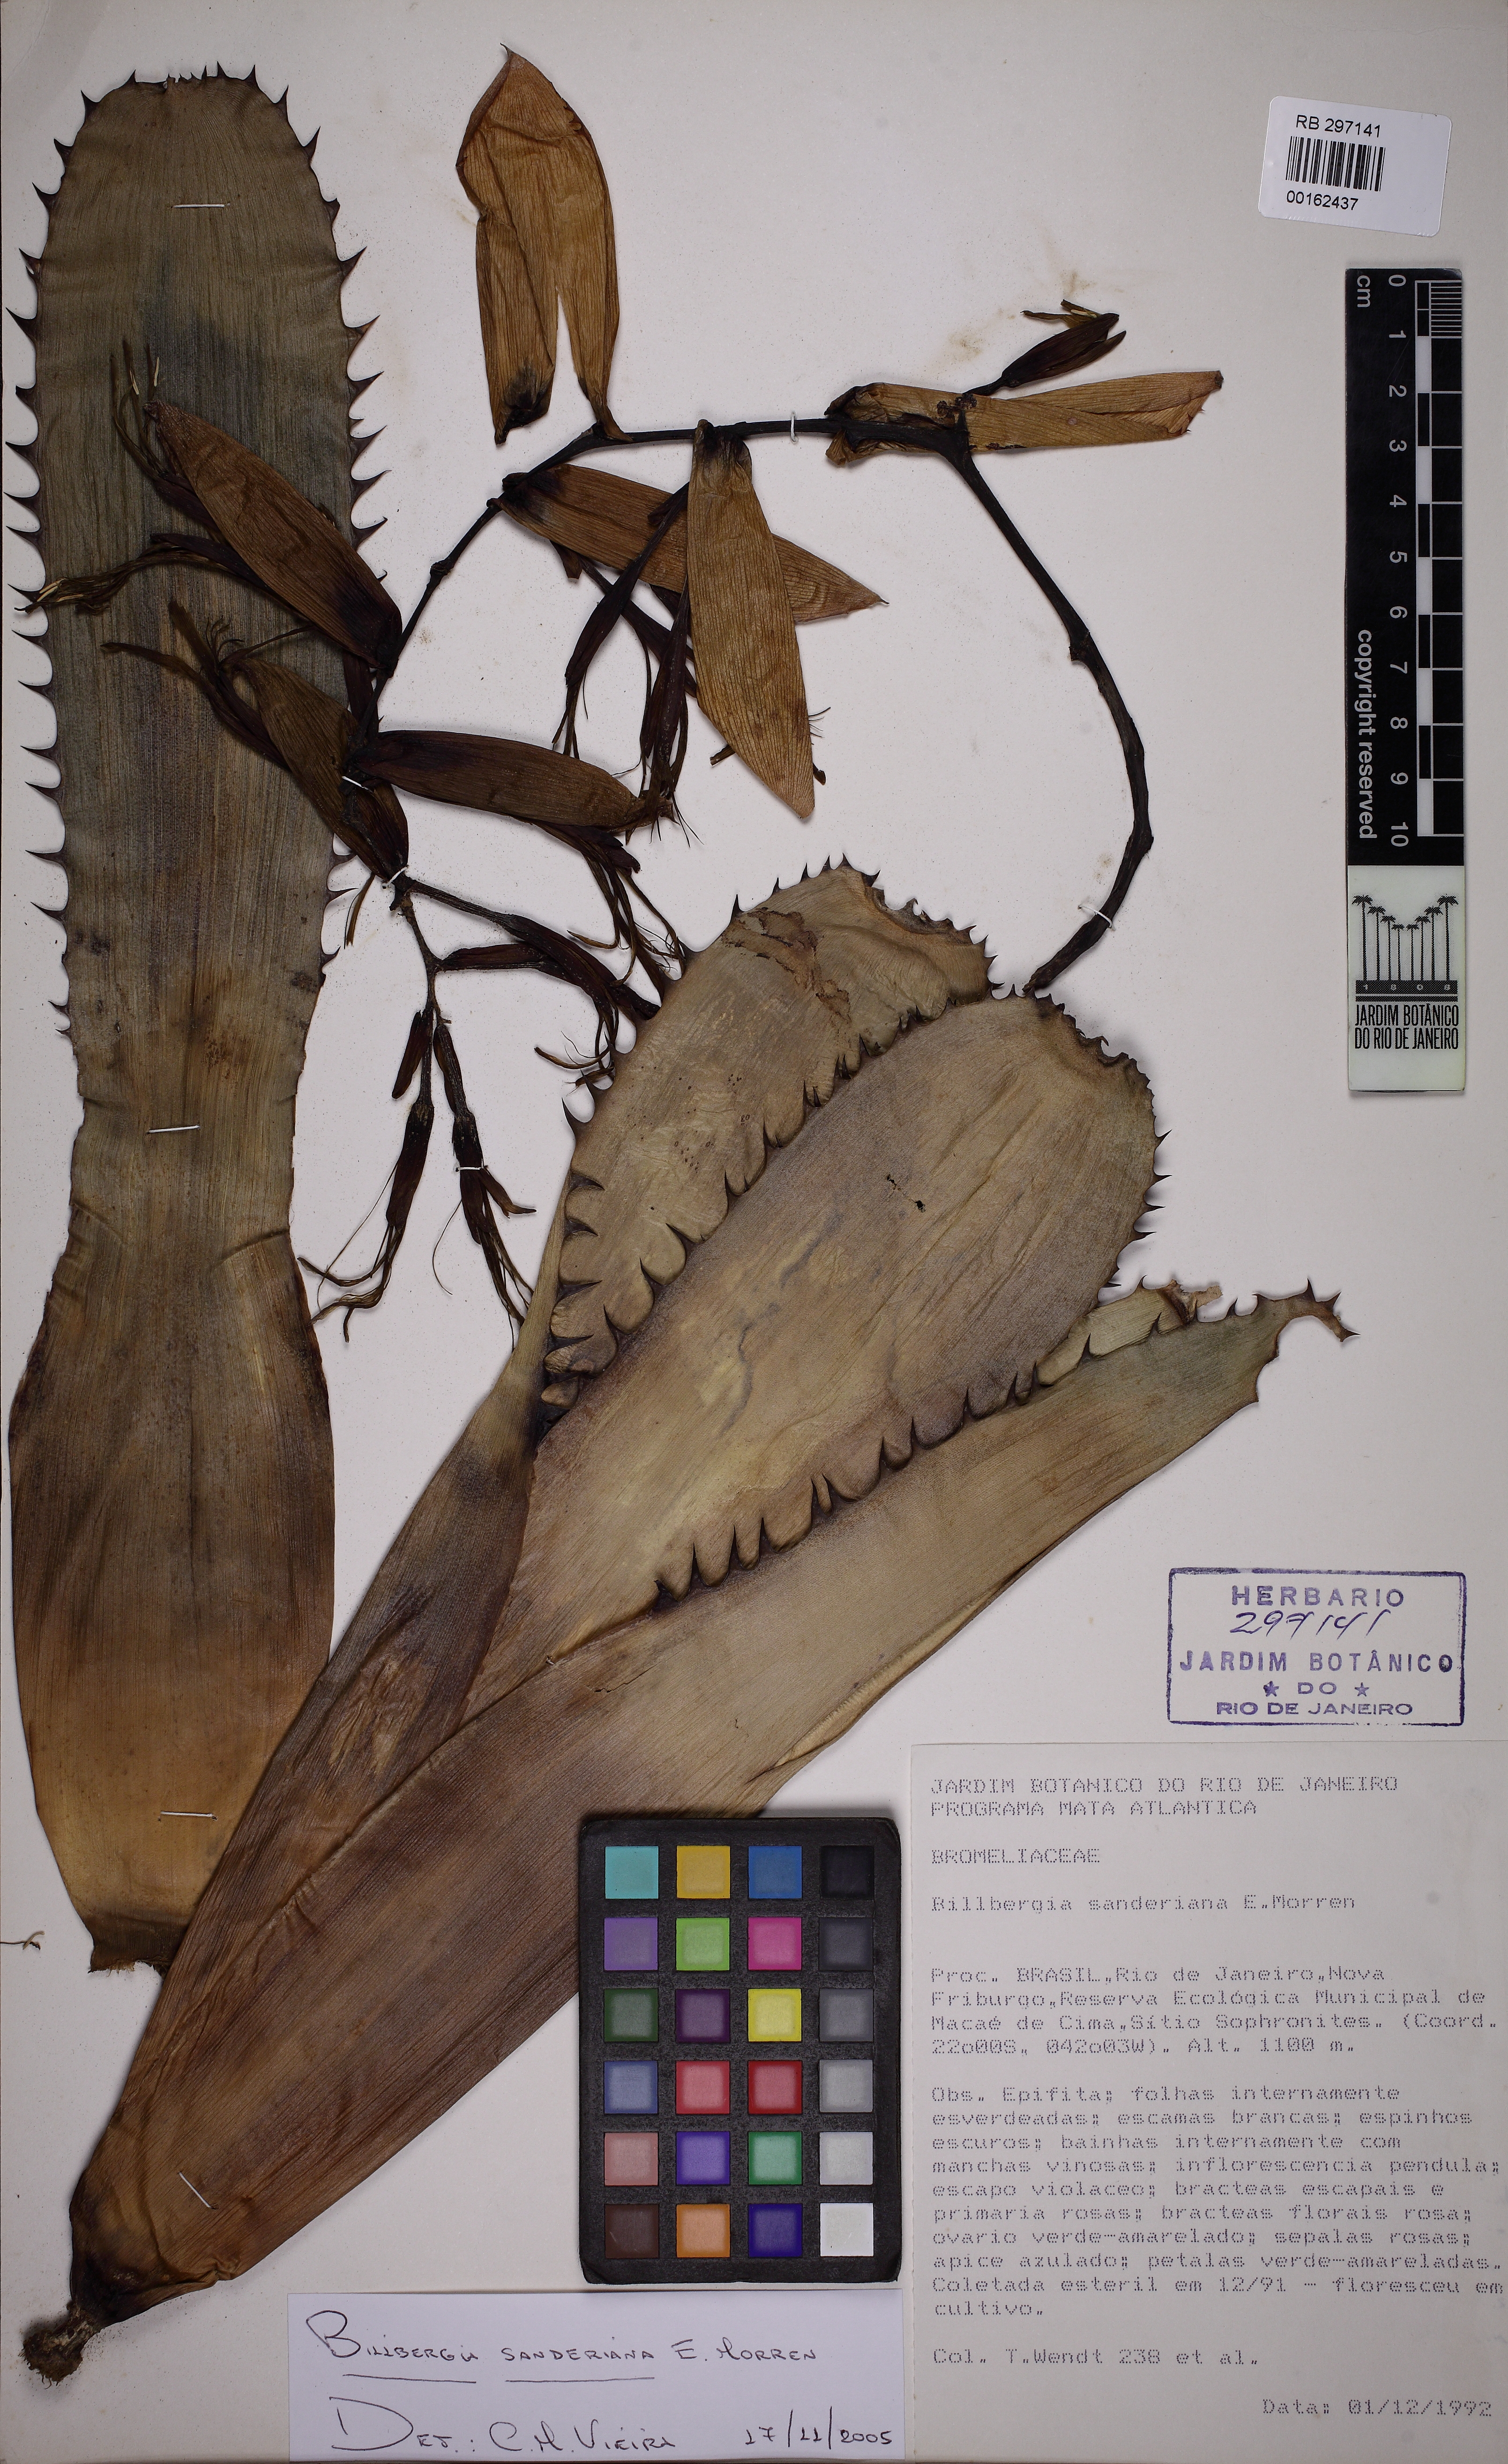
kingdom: Plantae
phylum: Tracheophyta
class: Liliopsida
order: Poales
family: Bromeliaceae
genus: Billbergia
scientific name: Billbergia sanderiana
